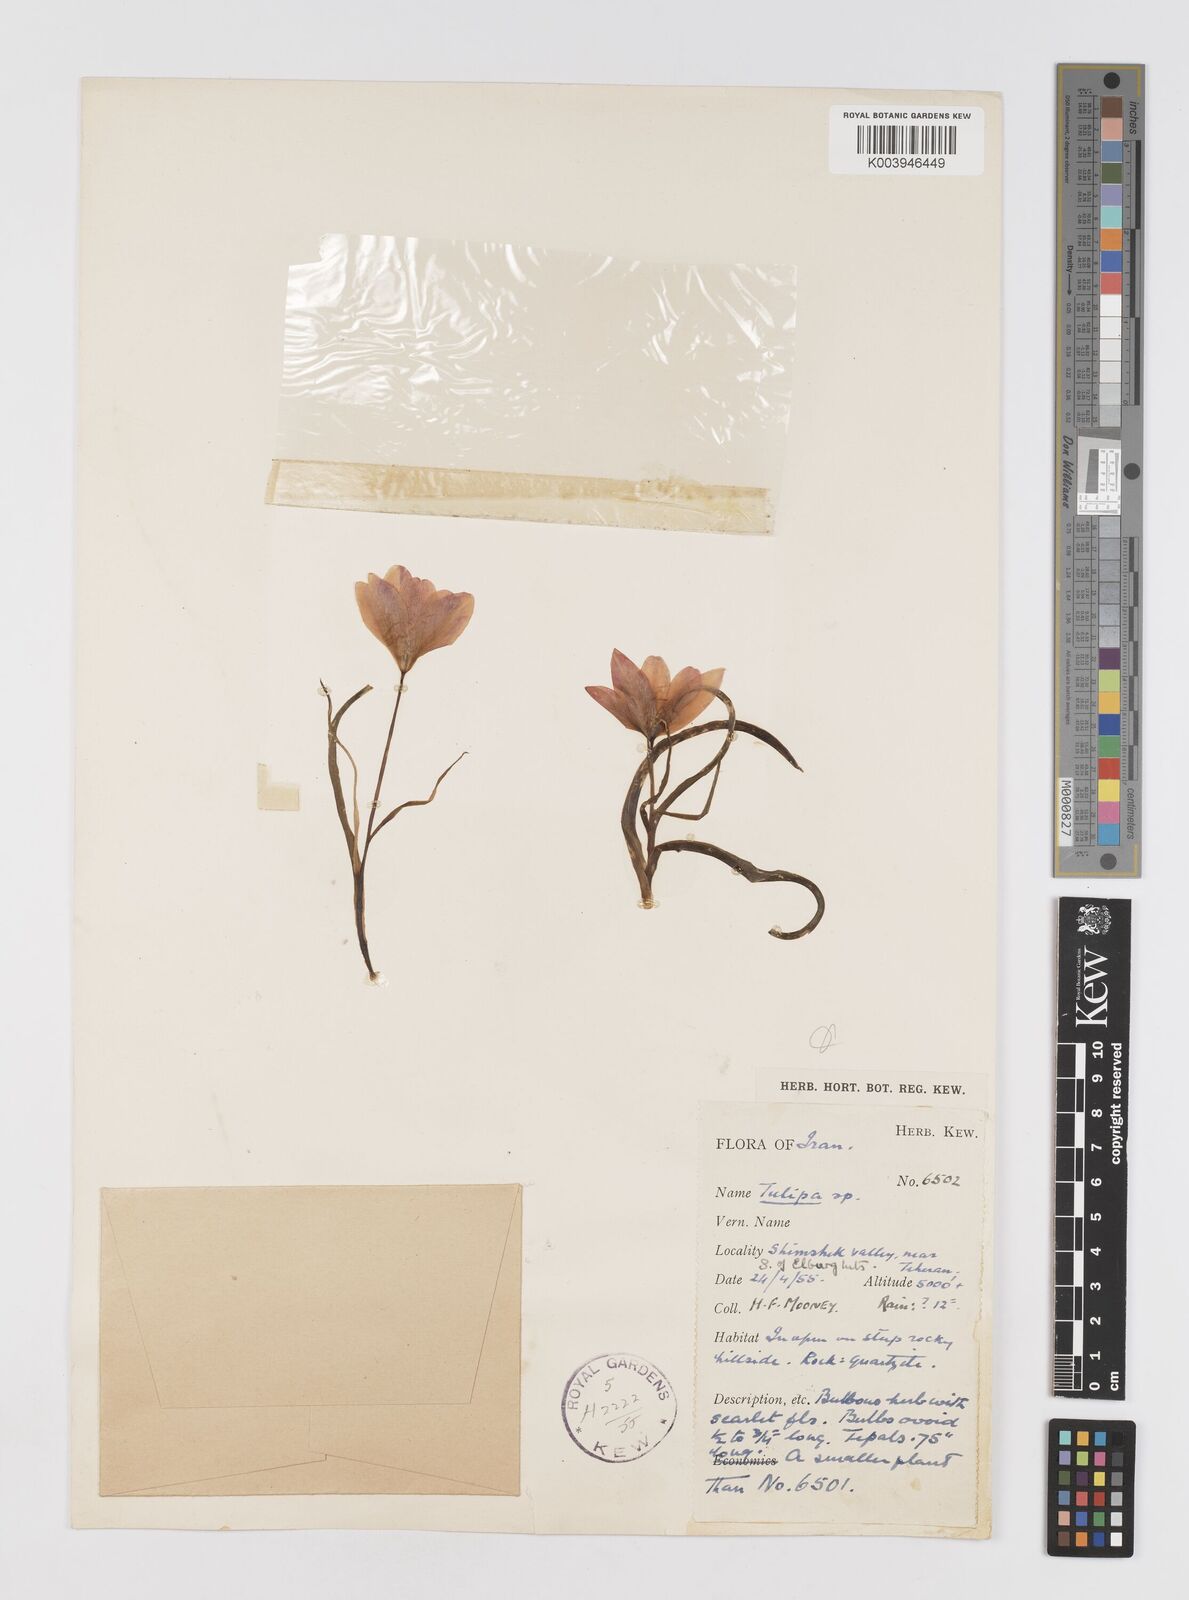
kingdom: Plantae
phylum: Tracheophyta
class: Liliopsida
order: Liliales
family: Liliaceae
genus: Tulipa
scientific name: Tulipa
